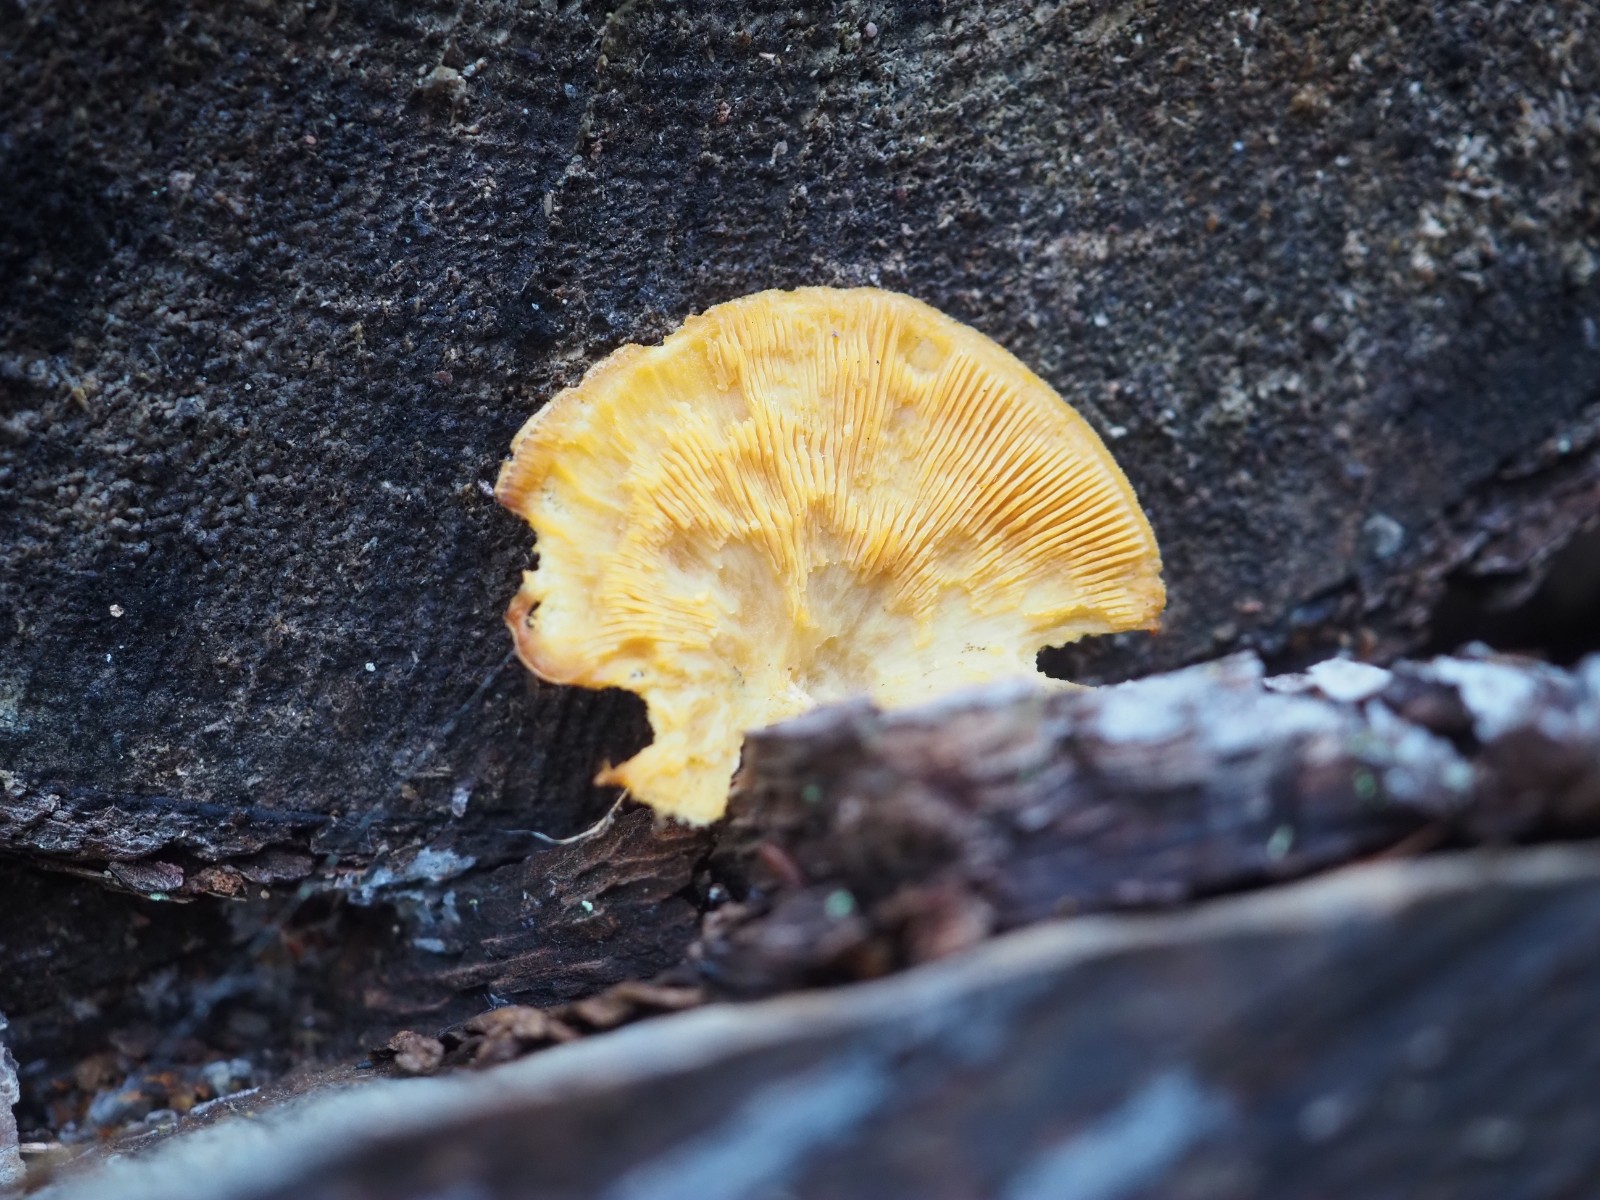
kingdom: Fungi
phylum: Basidiomycota
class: Agaricomycetes
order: Agaricales
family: Phyllotopsidaceae
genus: Phyllotopsis
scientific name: Phyllotopsis nidulans
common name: okkerblad
